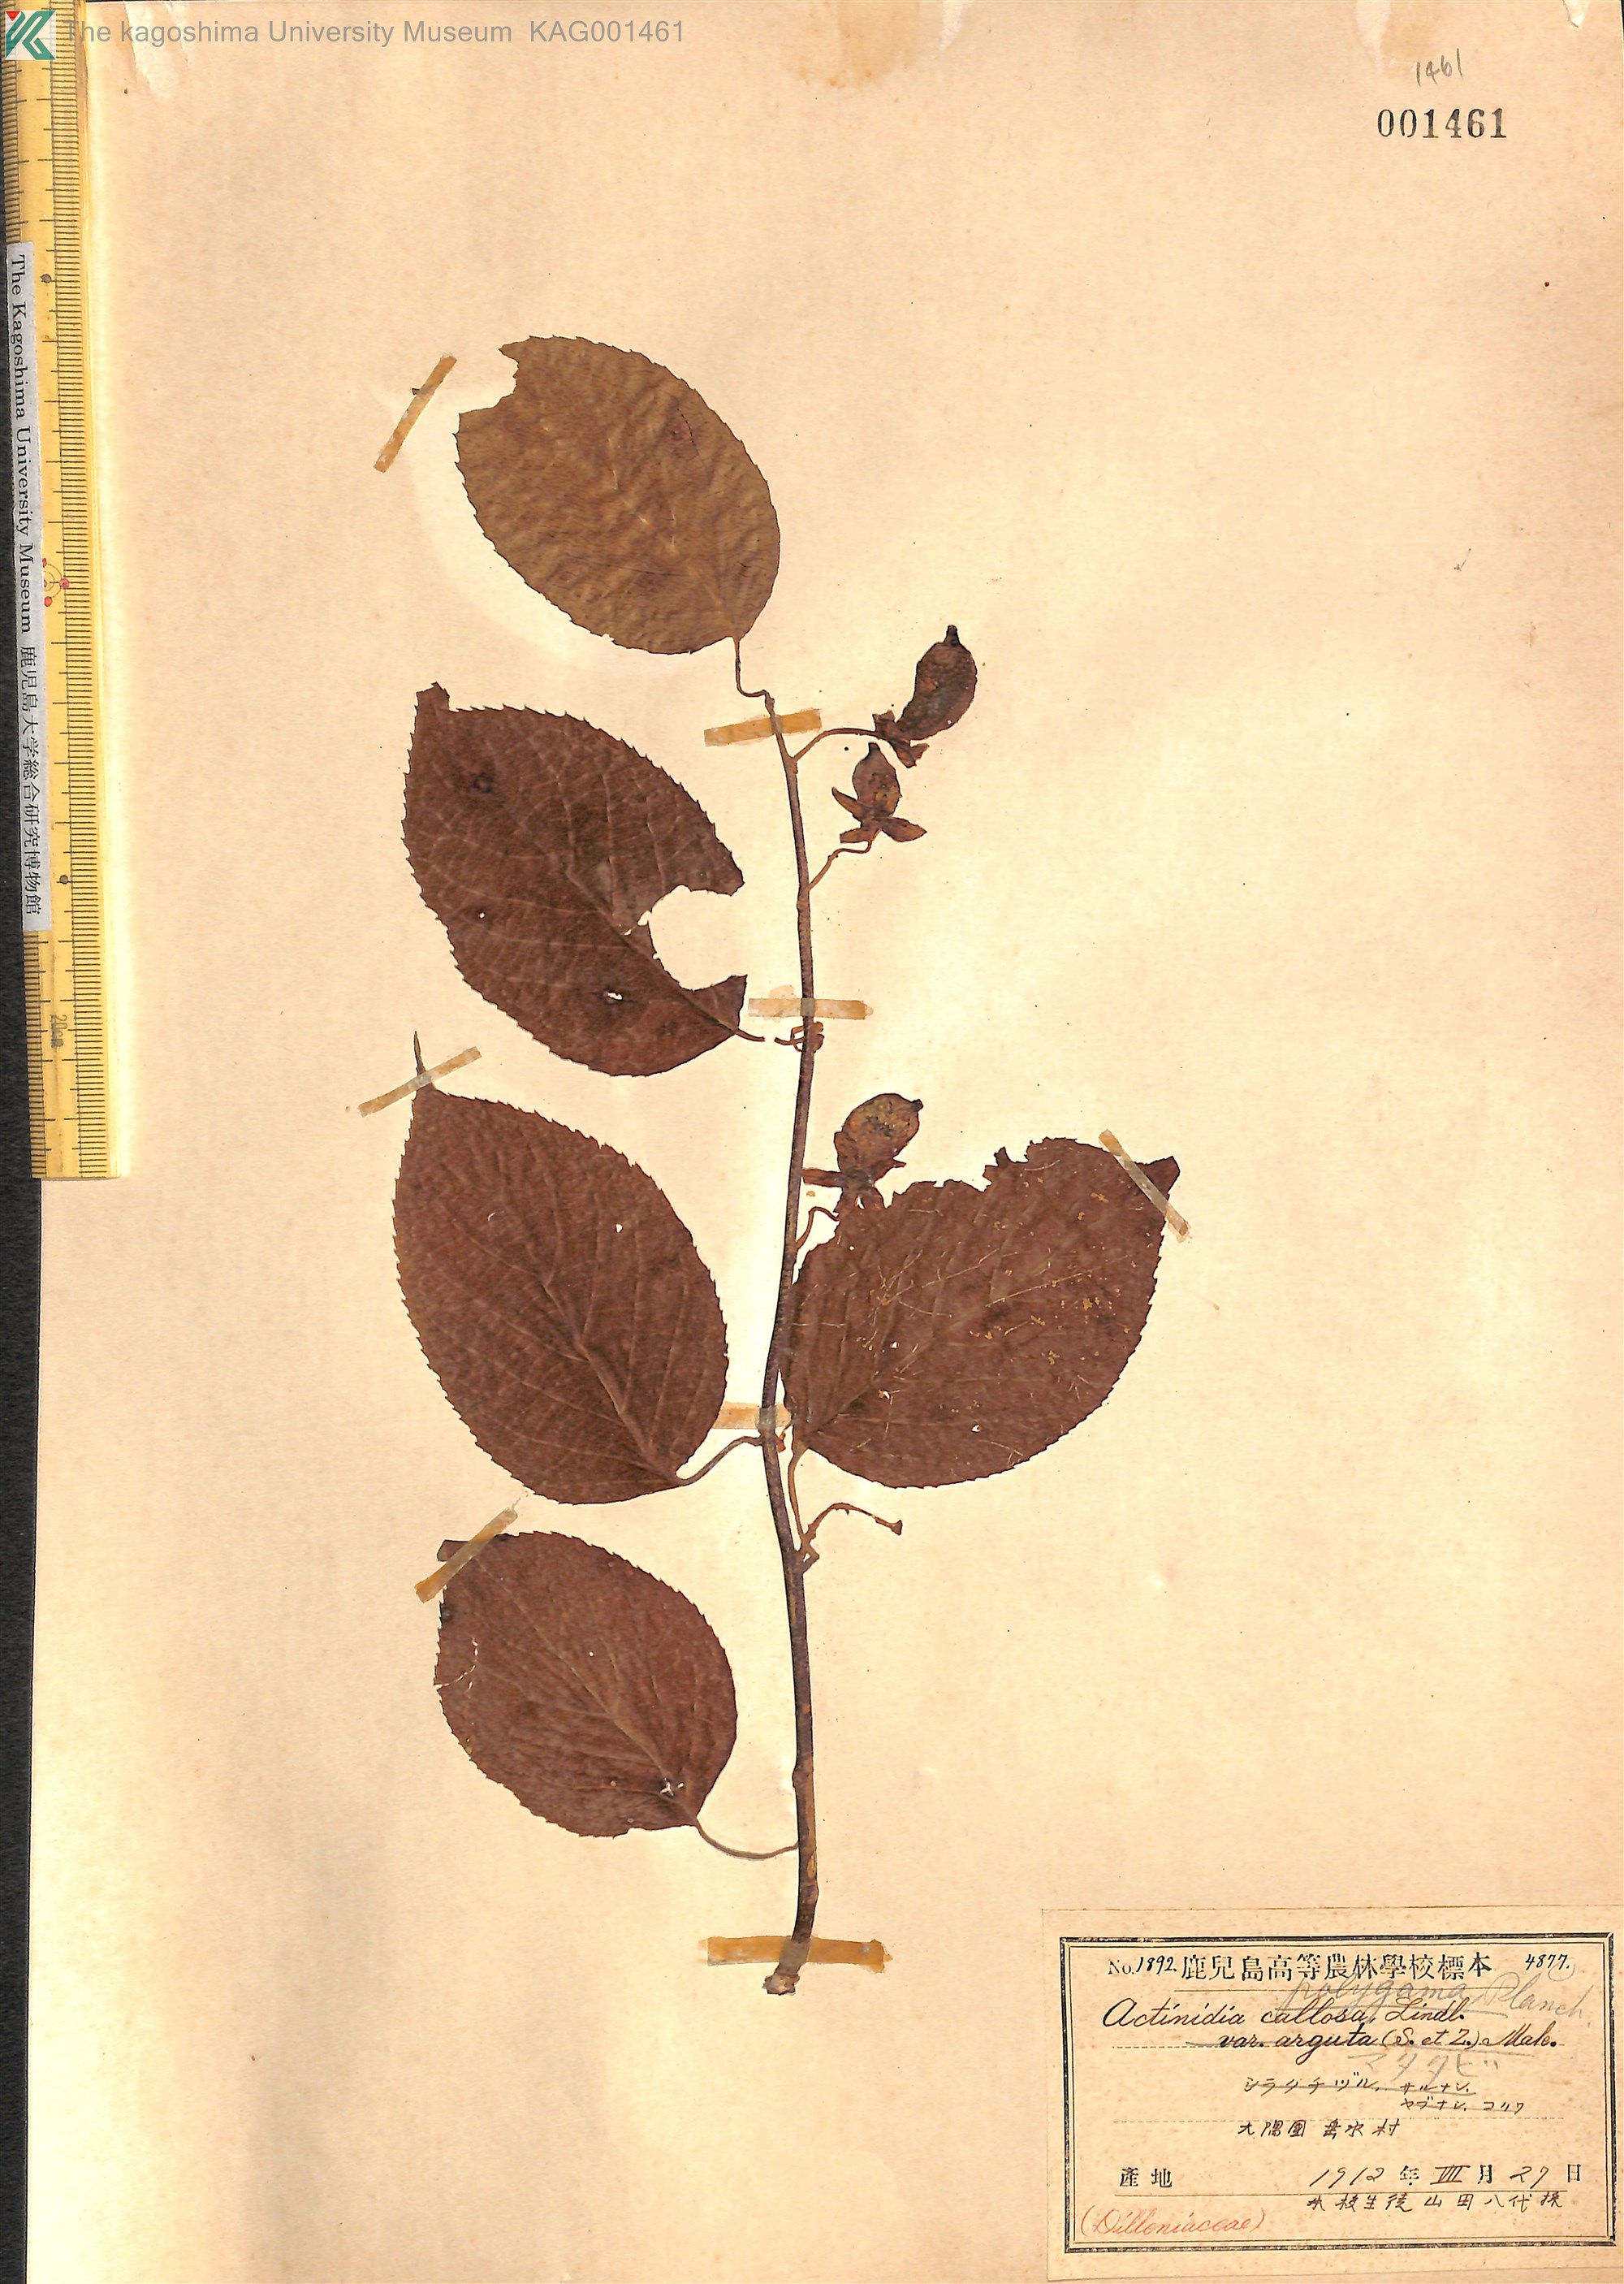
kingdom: Plantae
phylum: Tracheophyta
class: Magnoliopsida
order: Ericales
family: Actinidiaceae
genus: Actinidia
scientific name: Actinidia polygama
